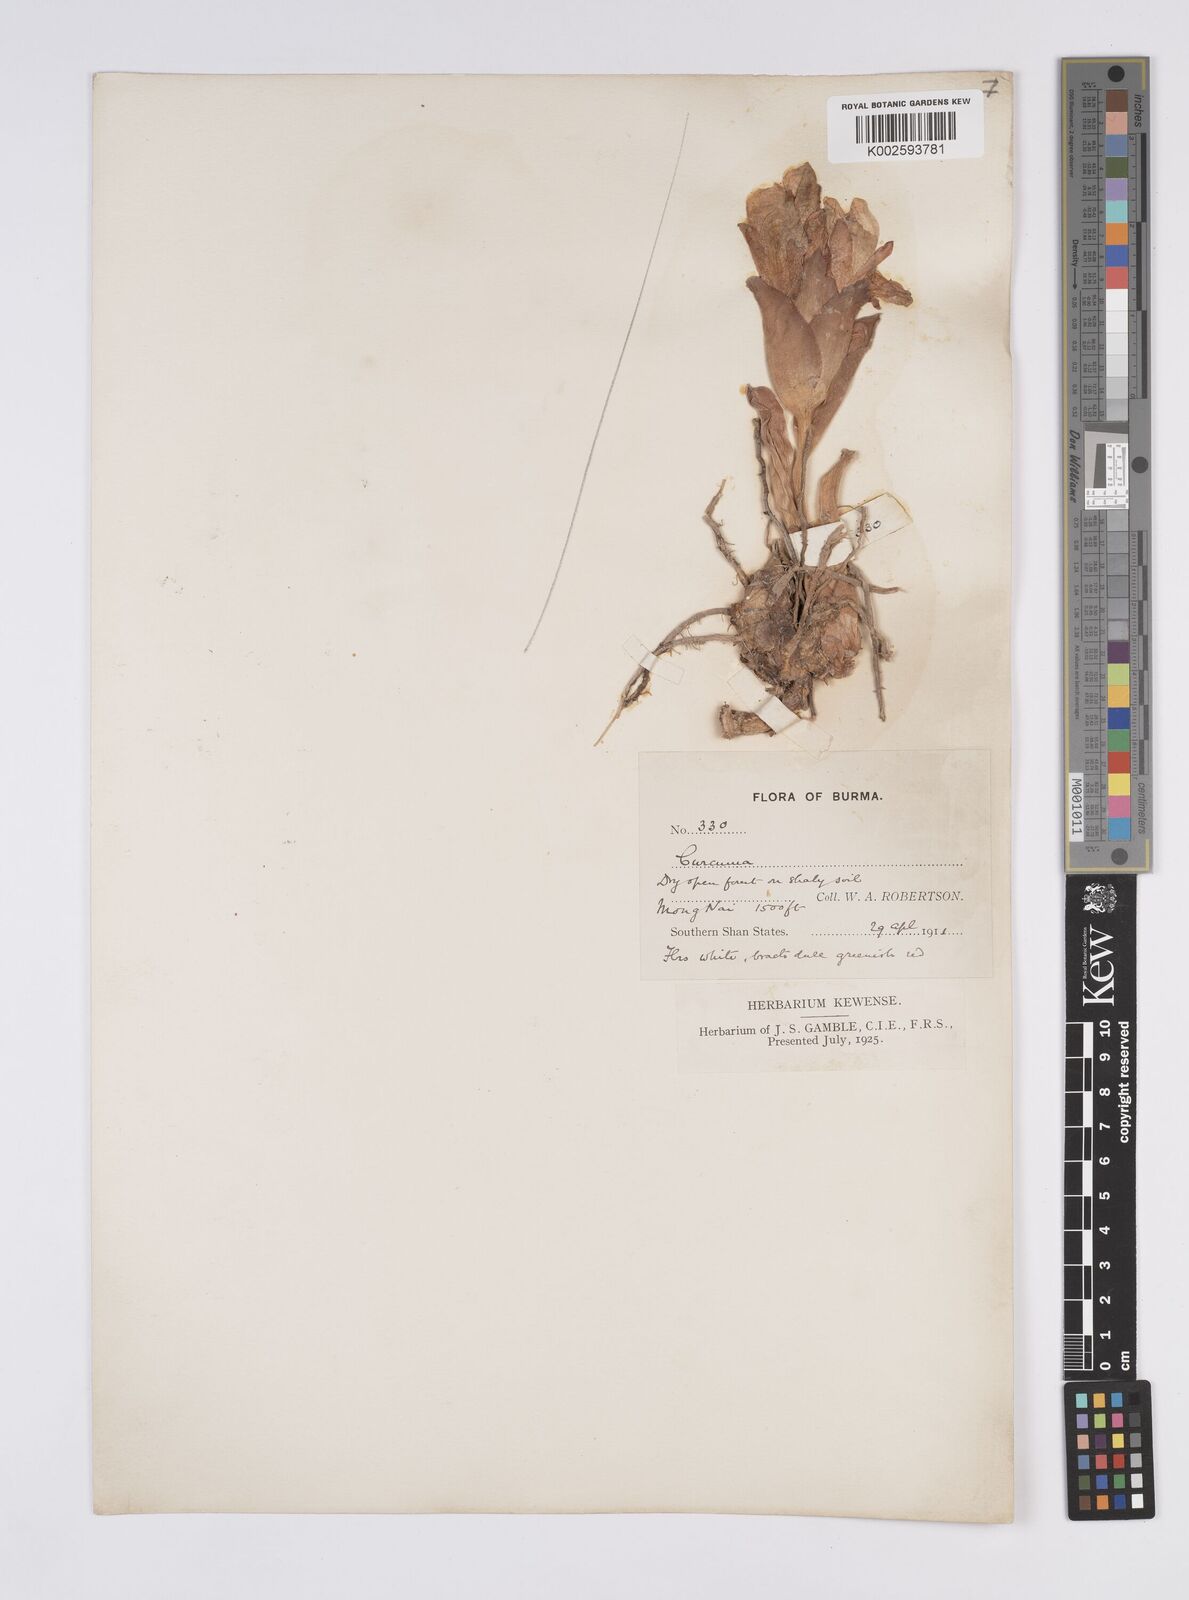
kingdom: Plantae
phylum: Tracheophyta
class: Liliopsida
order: Zingiberales
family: Zingiberaceae
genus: Curcuma
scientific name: Curcuma
